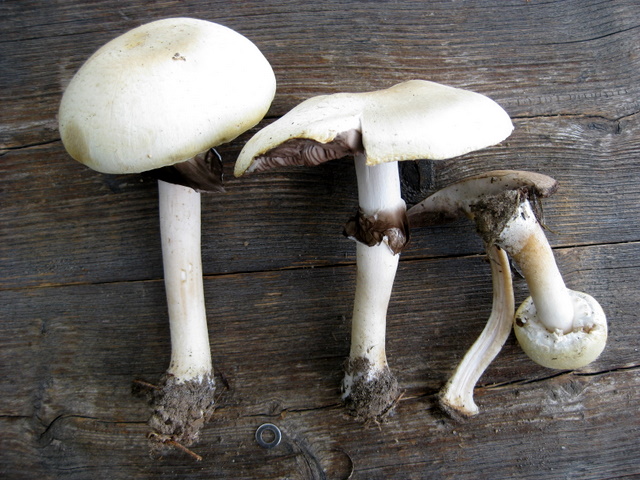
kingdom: Fungi
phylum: Basidiomycota
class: Agaricomycetes
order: Agaricales
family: Agaricaceae
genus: Agaricus
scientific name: Agaricus sylvicola
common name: skiveknoldet champignon
